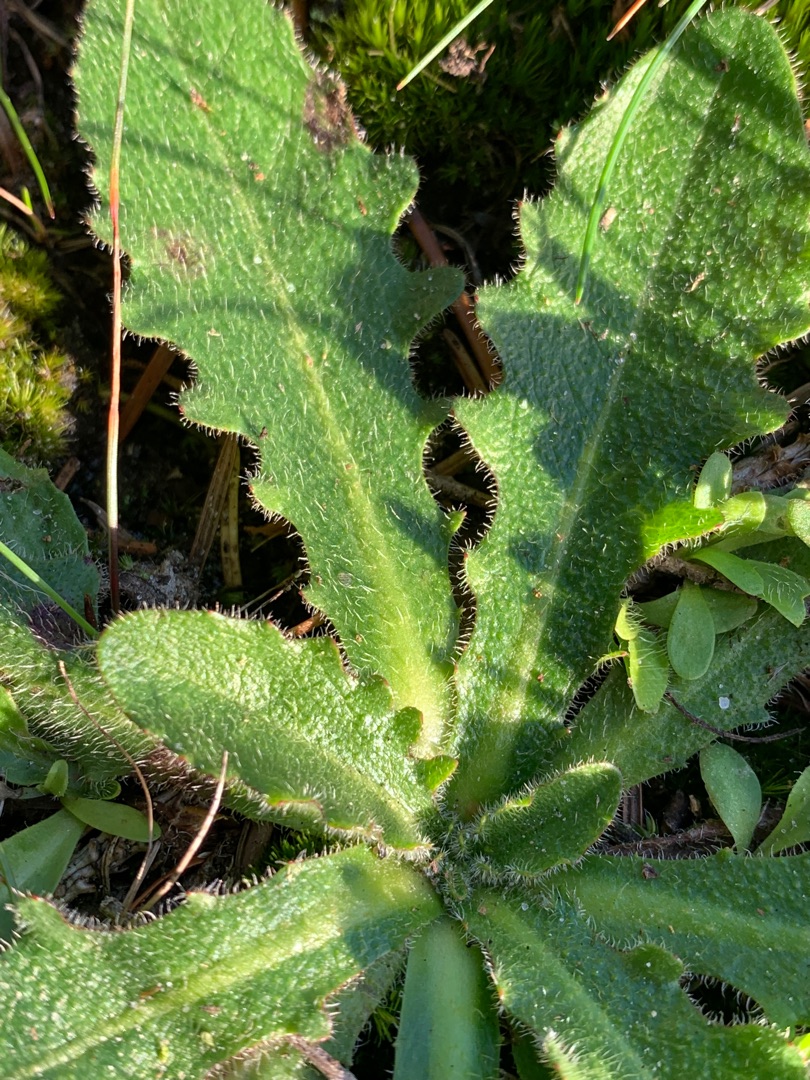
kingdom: Plantae
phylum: Tracheophyta
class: Magnoliopsida
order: Asterales
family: Asteraceae
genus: Hypochaeris
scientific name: Hypochaeris radicata
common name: Almindelig kongepen
